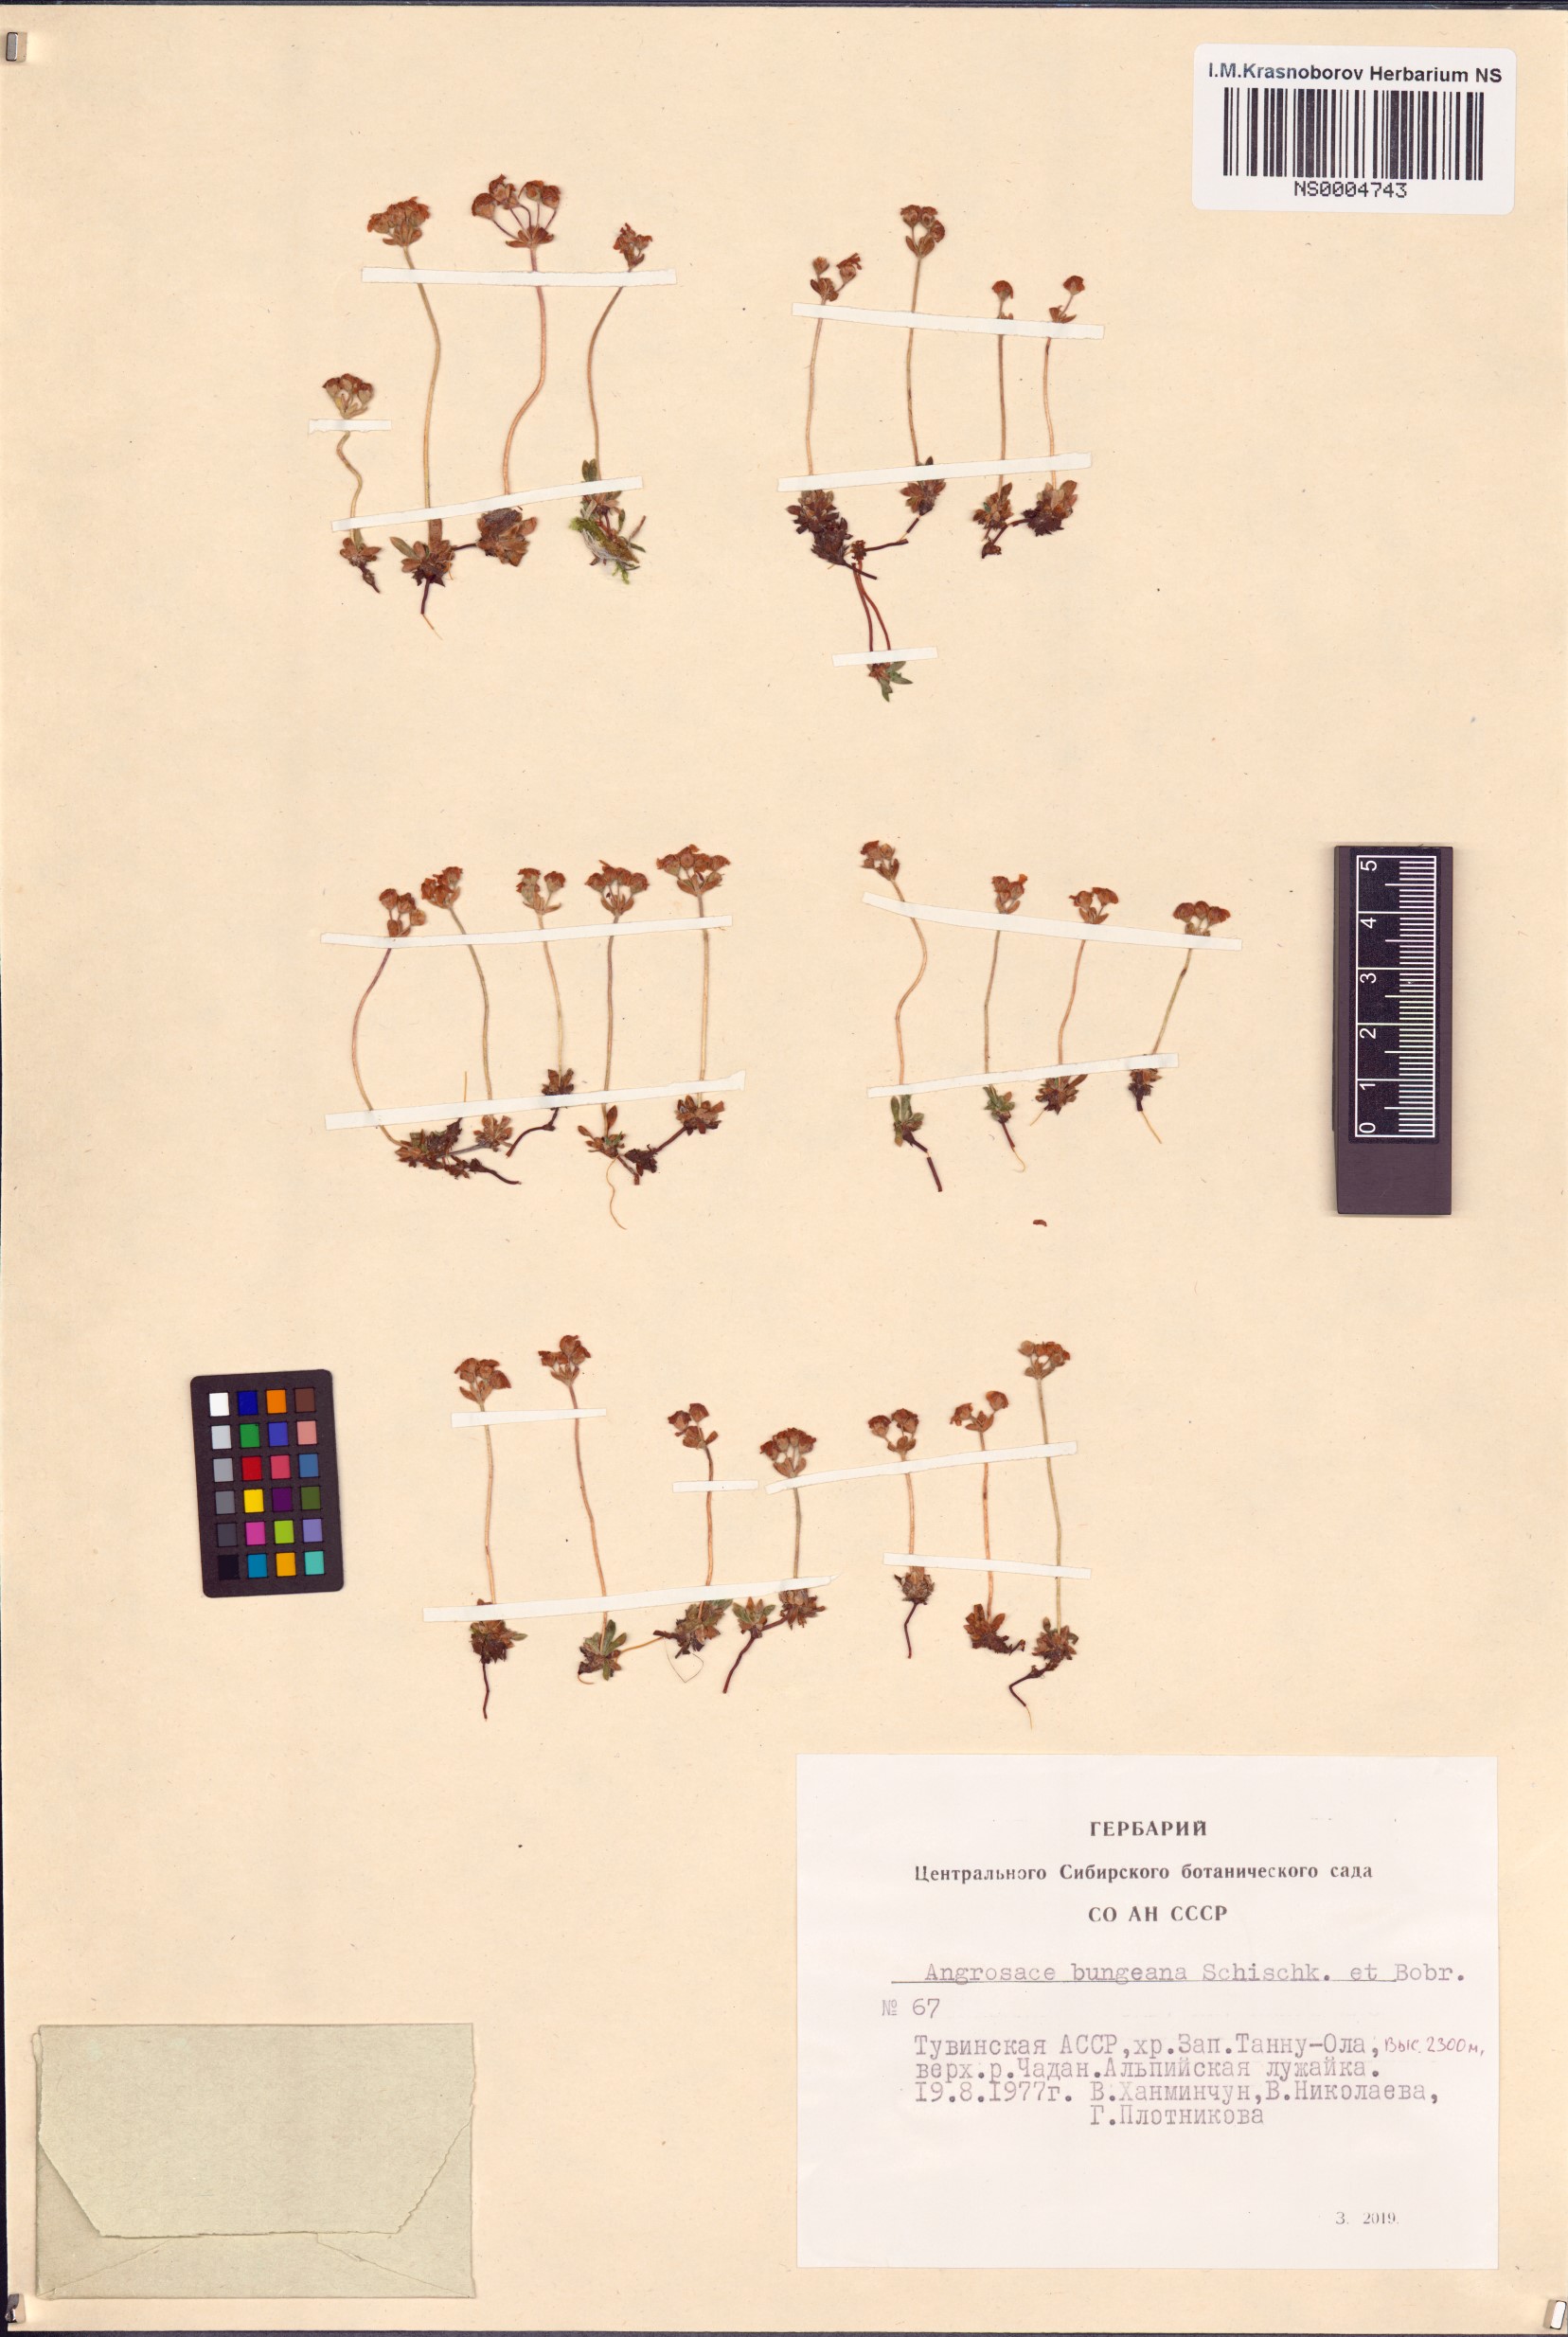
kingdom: Plantae
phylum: Tracheophyta
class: Magnoliopsida
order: Ericales
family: Primulaceae
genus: Androsace
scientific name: Androsace bungeana
